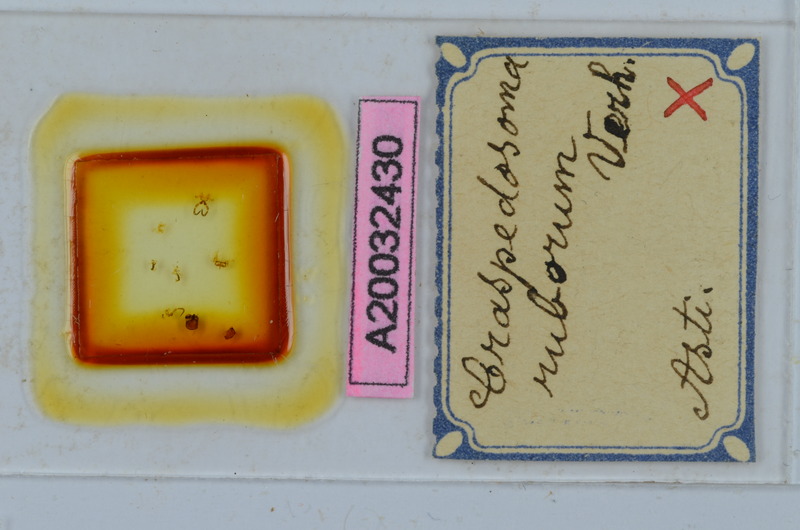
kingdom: Animalia
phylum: Arthropoda
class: Diplopoda
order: Chordeumatida
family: Craspedosomatidae
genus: Craspedosoma
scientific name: Craspedosoma ruborum
